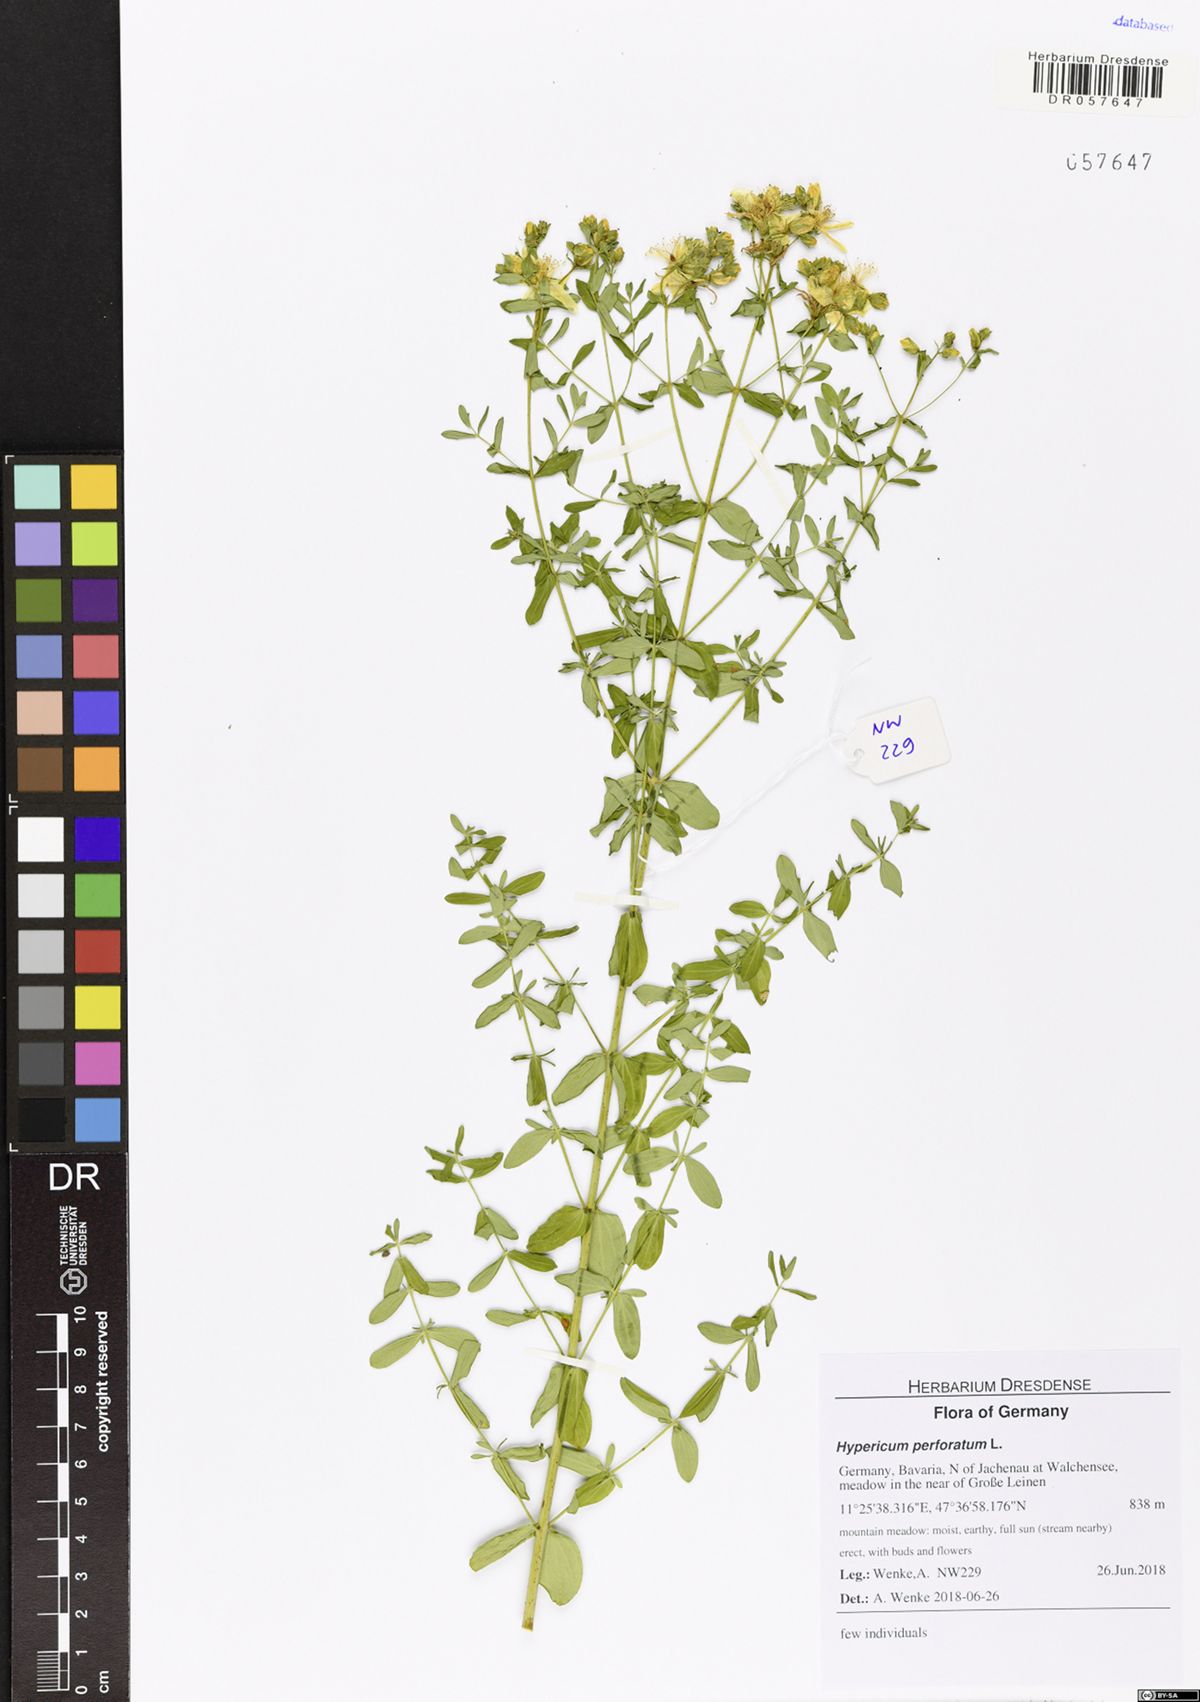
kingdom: Plantae
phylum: Tracheophyta
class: Magnoliopsida
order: Malpighiales
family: Hypericaceae
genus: Hypericum
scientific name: Hypericum perforatum
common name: Common st. johnswort
